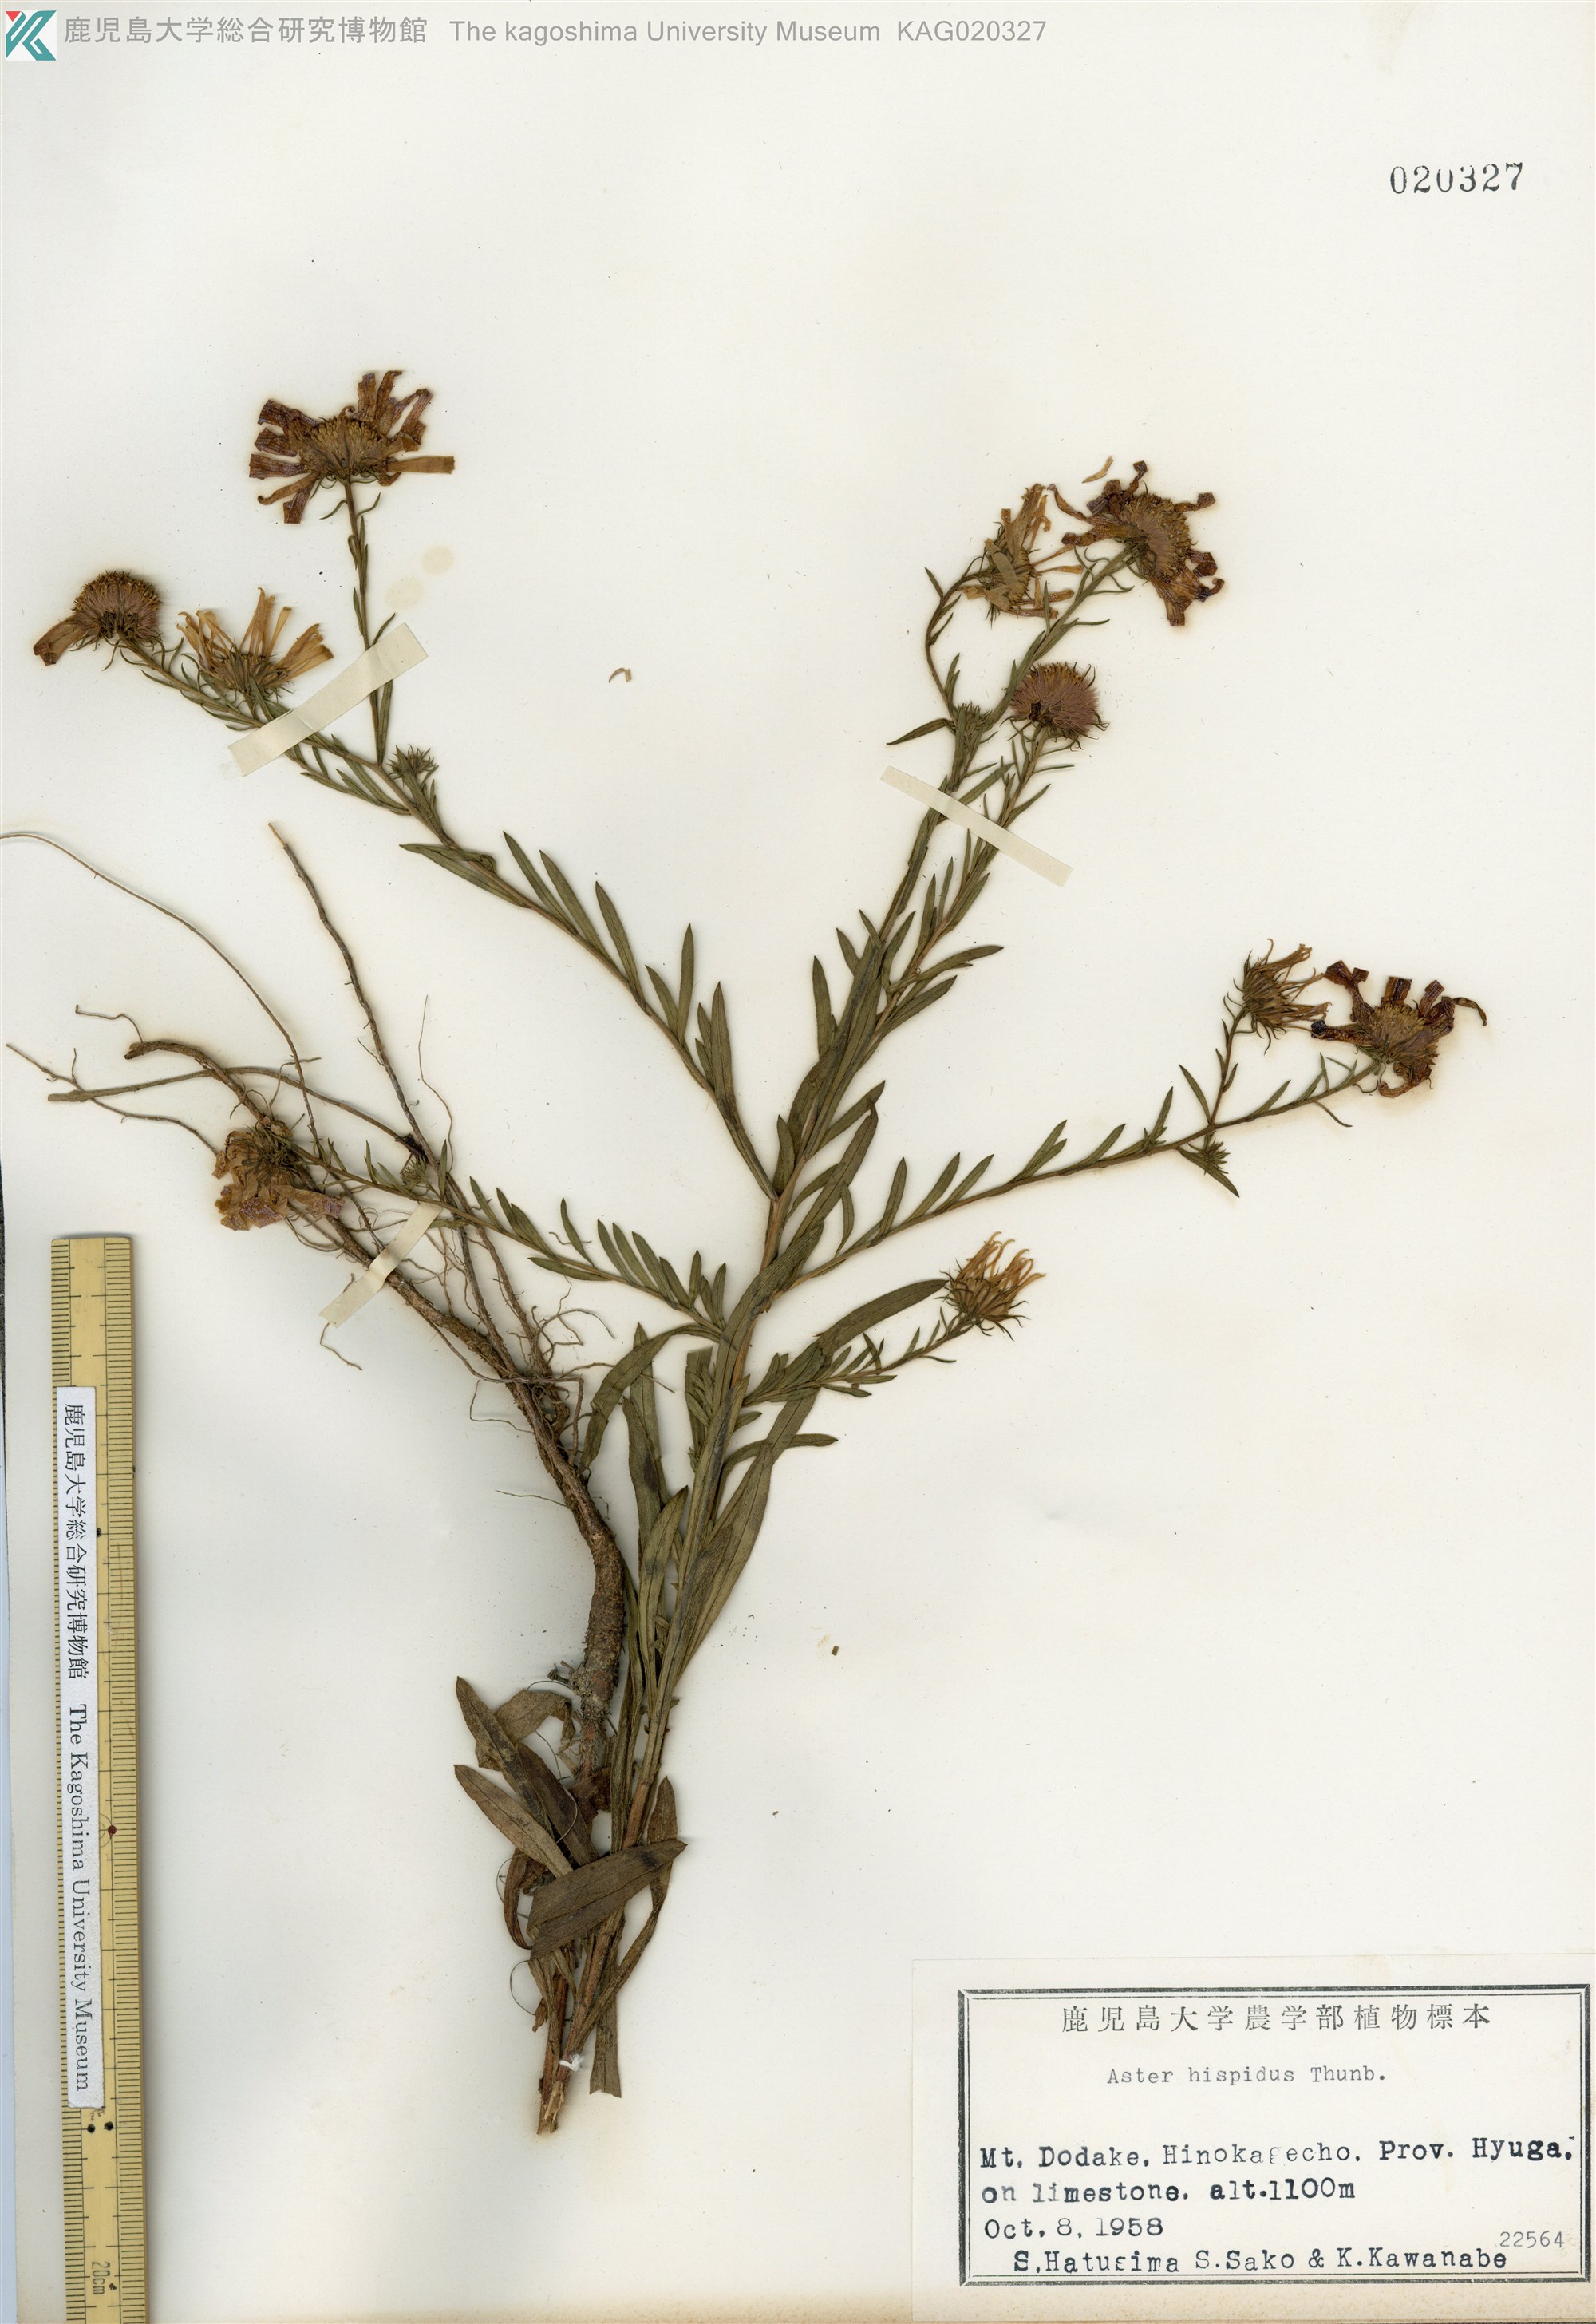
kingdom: Plantae
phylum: Tracheophyta
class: Magnoliopsida
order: Asterales
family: Asteraceae
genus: Heteropappus
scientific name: Heteropappus hispidus
